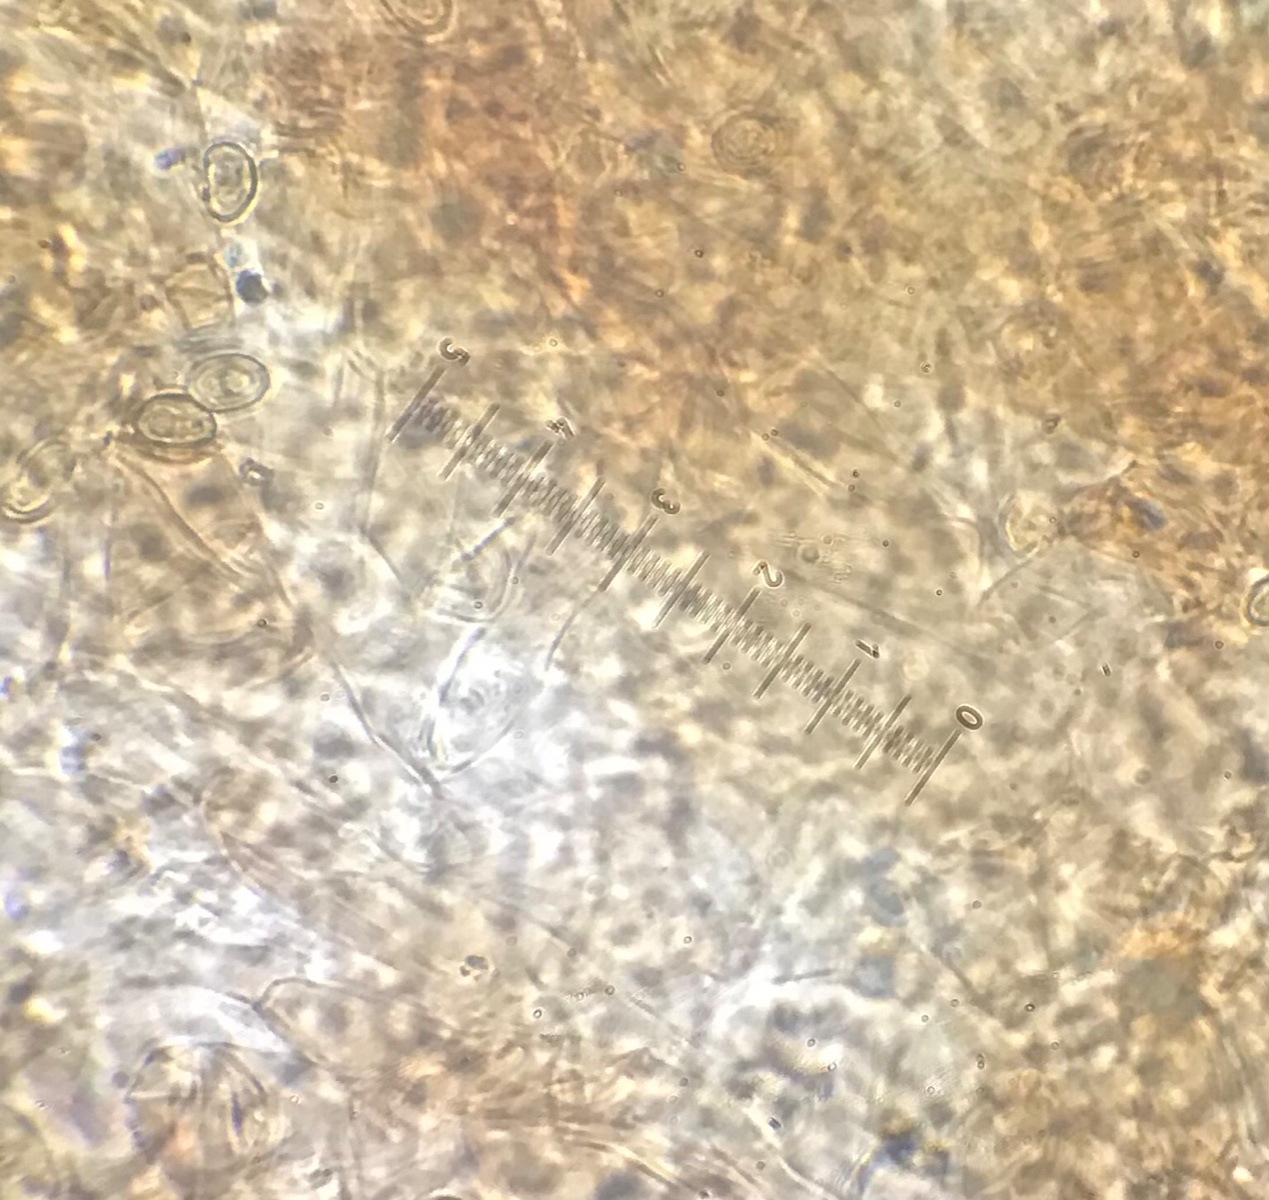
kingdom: Fungi
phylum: Basidiomycota
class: Agaricomycetes
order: Agaricales
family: Crepidotaceae
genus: Simocybe
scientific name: Simocybe sumptuosa
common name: stor skyggehat
